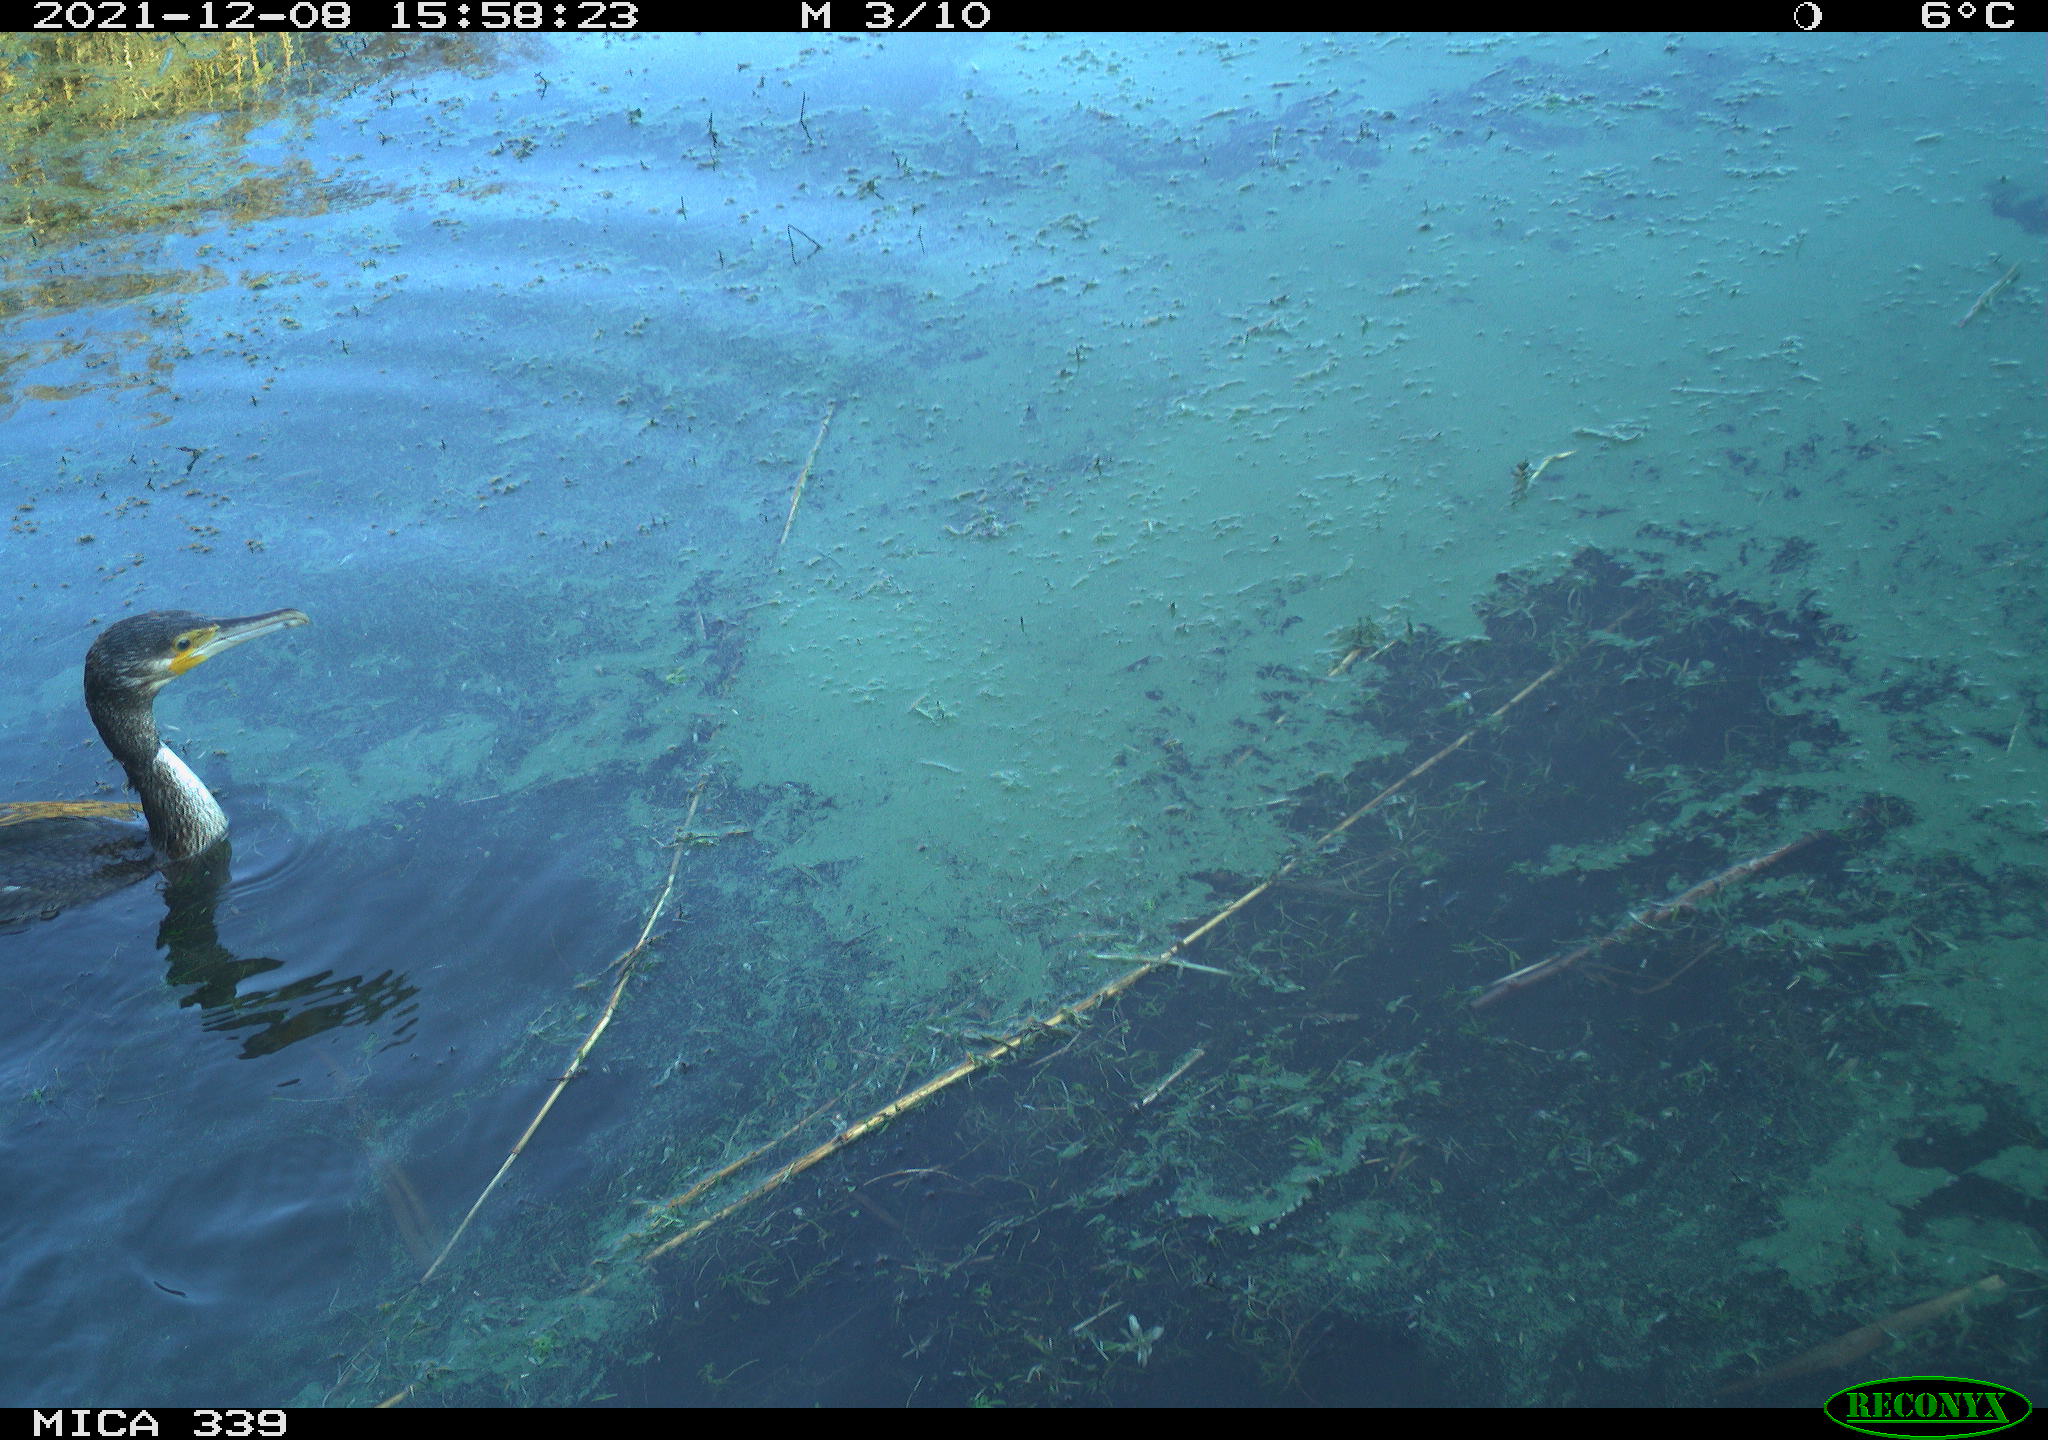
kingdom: Animalia
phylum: Chordata
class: Aves
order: Suliformes
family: Phalacrocoracidae
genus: Phalacrocorax
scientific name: Phalacrocorax carbo
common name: Great cormorant
